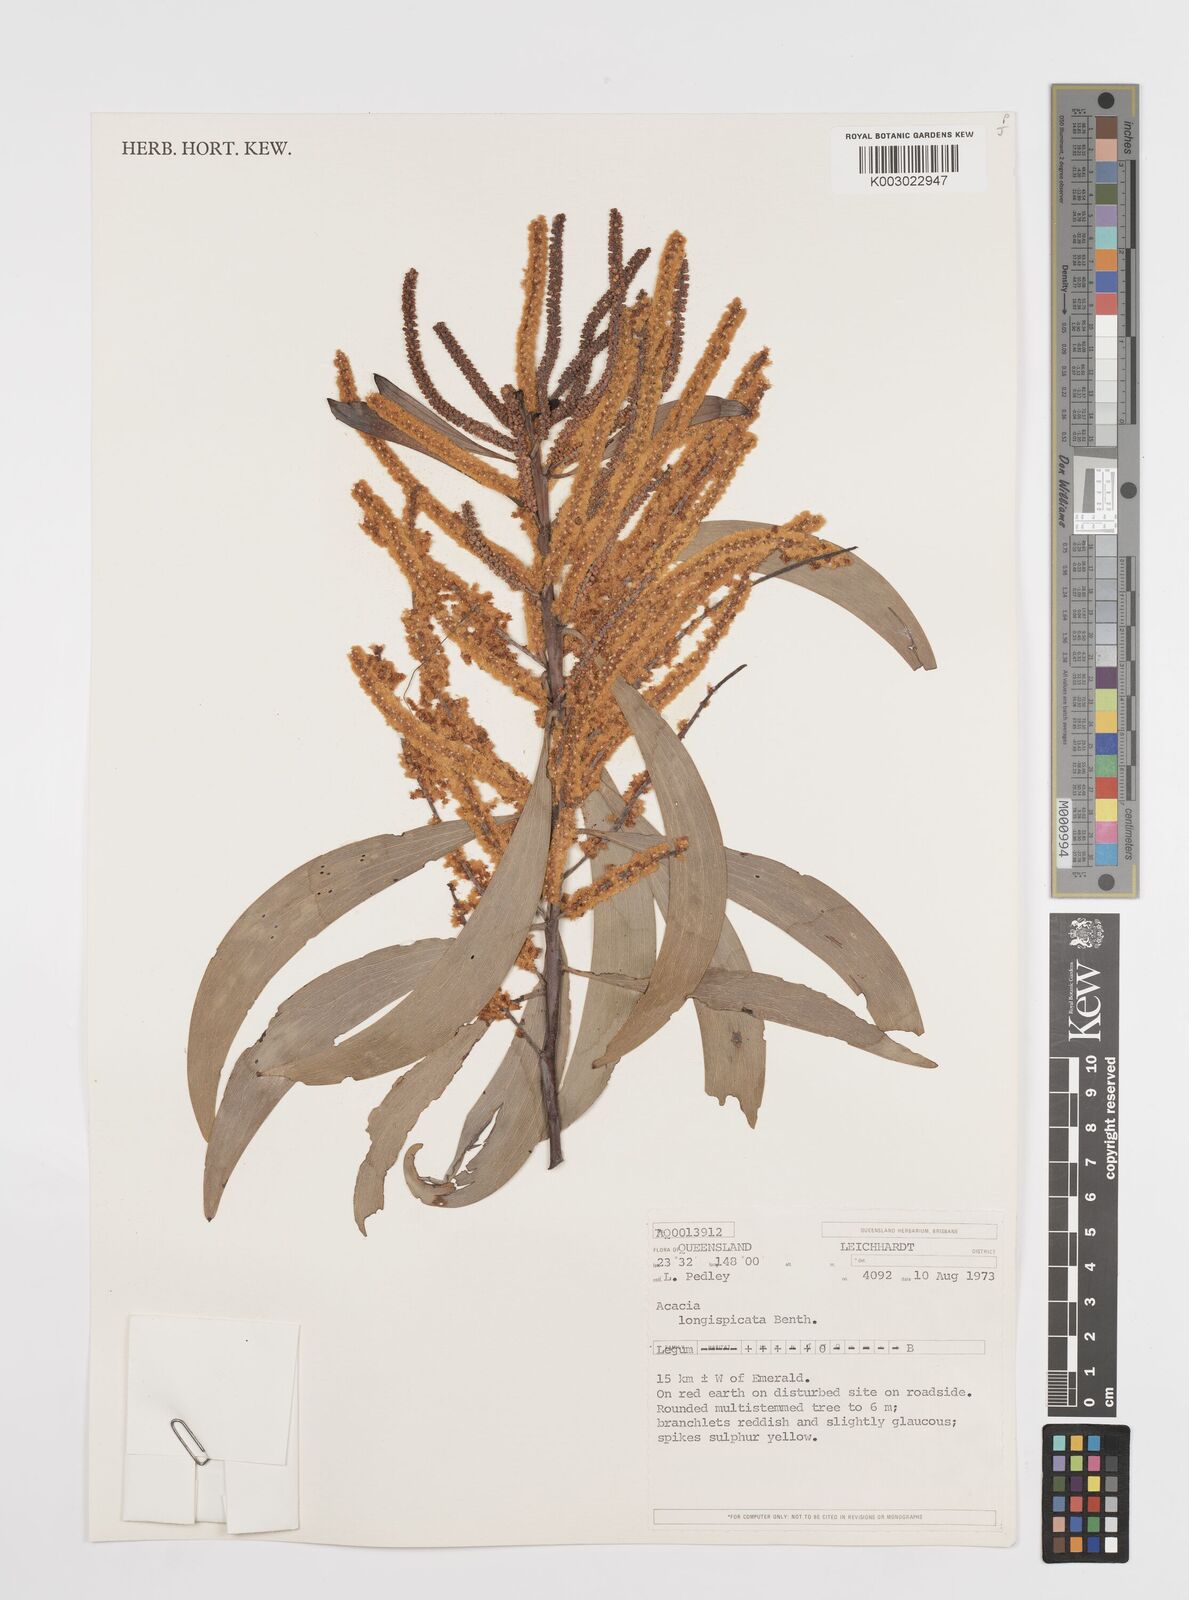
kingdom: Plantae
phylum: Tracheophyta
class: Magnoliopsida
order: Fabales
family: Fabaceae
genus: Acacia
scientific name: Acacia longispicata
